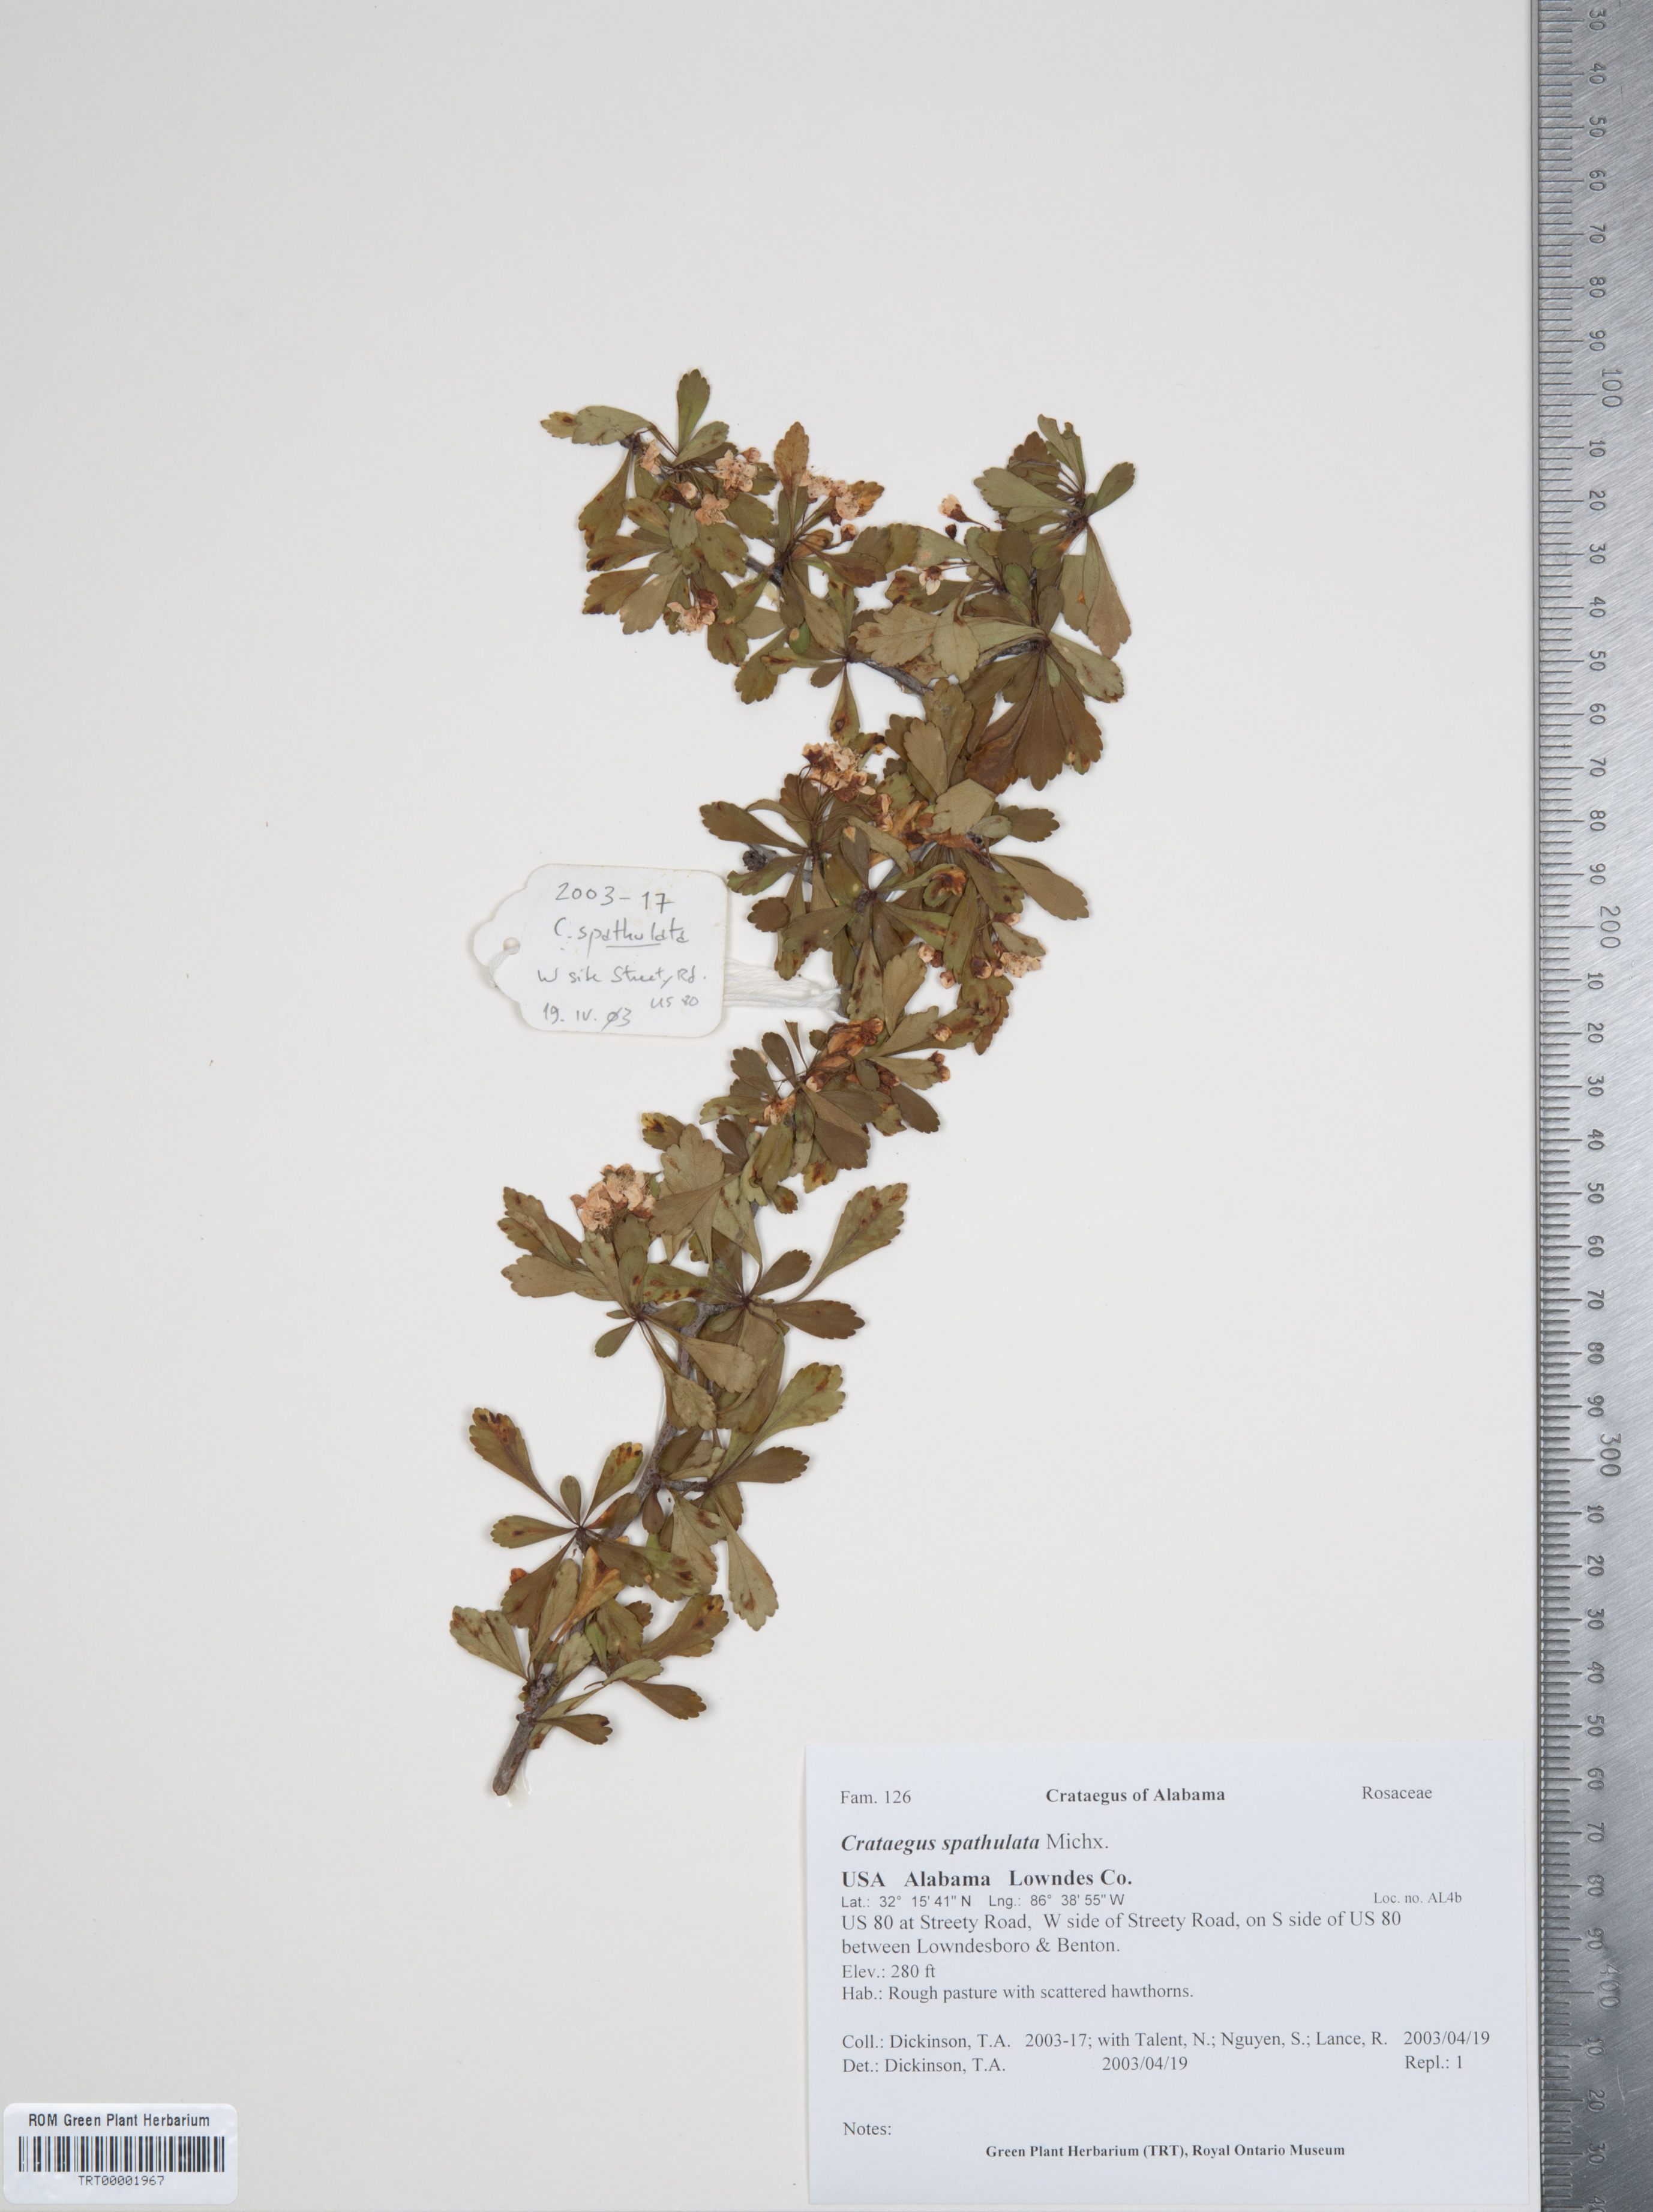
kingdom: Plantae
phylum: Tracheophyta
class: Magnoliopsida
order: Rosales
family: Rosaceae
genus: Crataegus
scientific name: Crataegus spathulata
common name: Littlehip hawthorn
